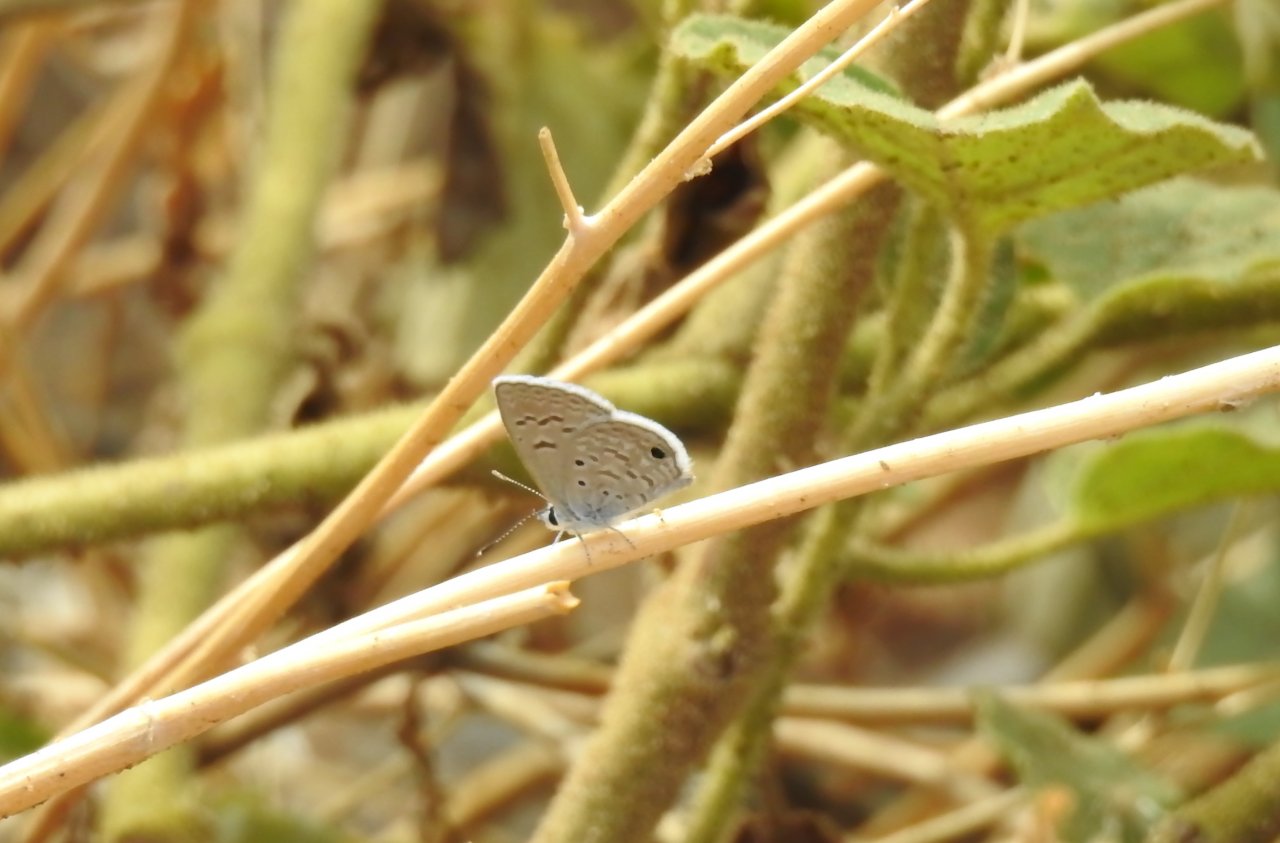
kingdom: Animalia
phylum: Arthropoda
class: Insecta
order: Lepidoptera
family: Lycaenidae
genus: Hemiargus
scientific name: Hemiargus ceraunus
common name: Ceraunus Blue
